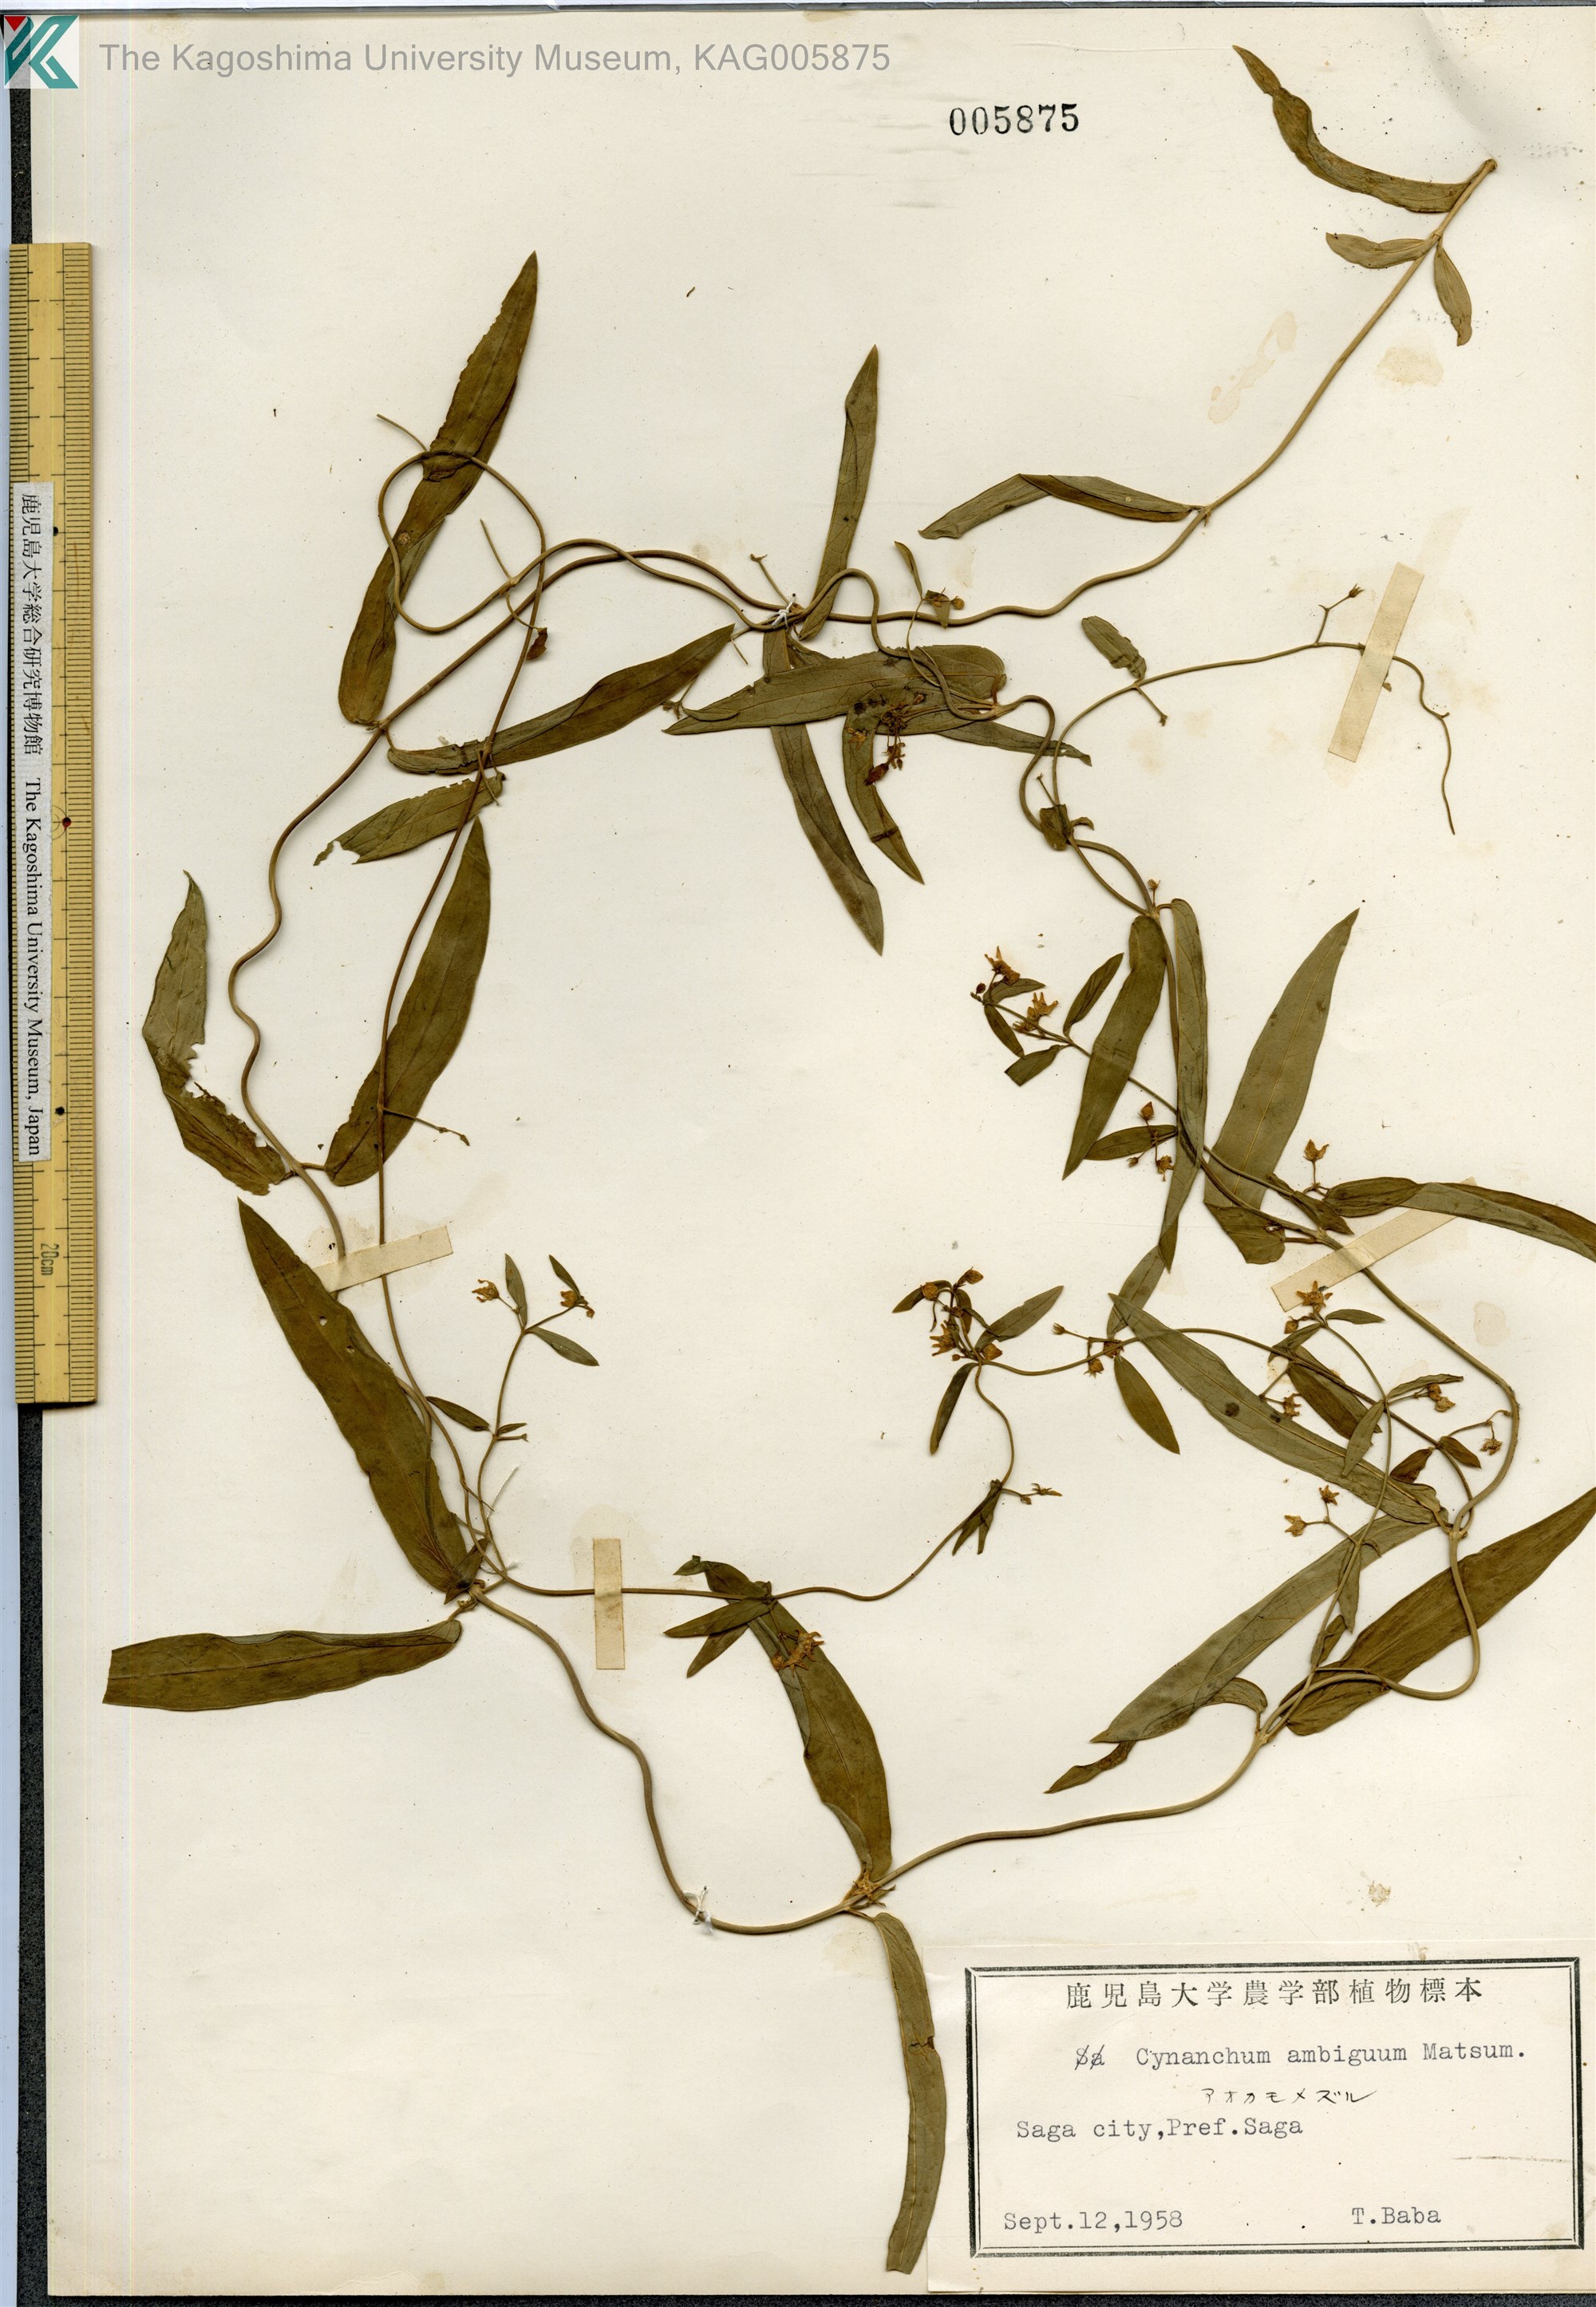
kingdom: Plantae
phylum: Tracheophyta
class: Magnoliopsida
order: Gentianales
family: Apocynaceae
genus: Vincetoxicum
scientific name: Vincetoxicum ambiguum
